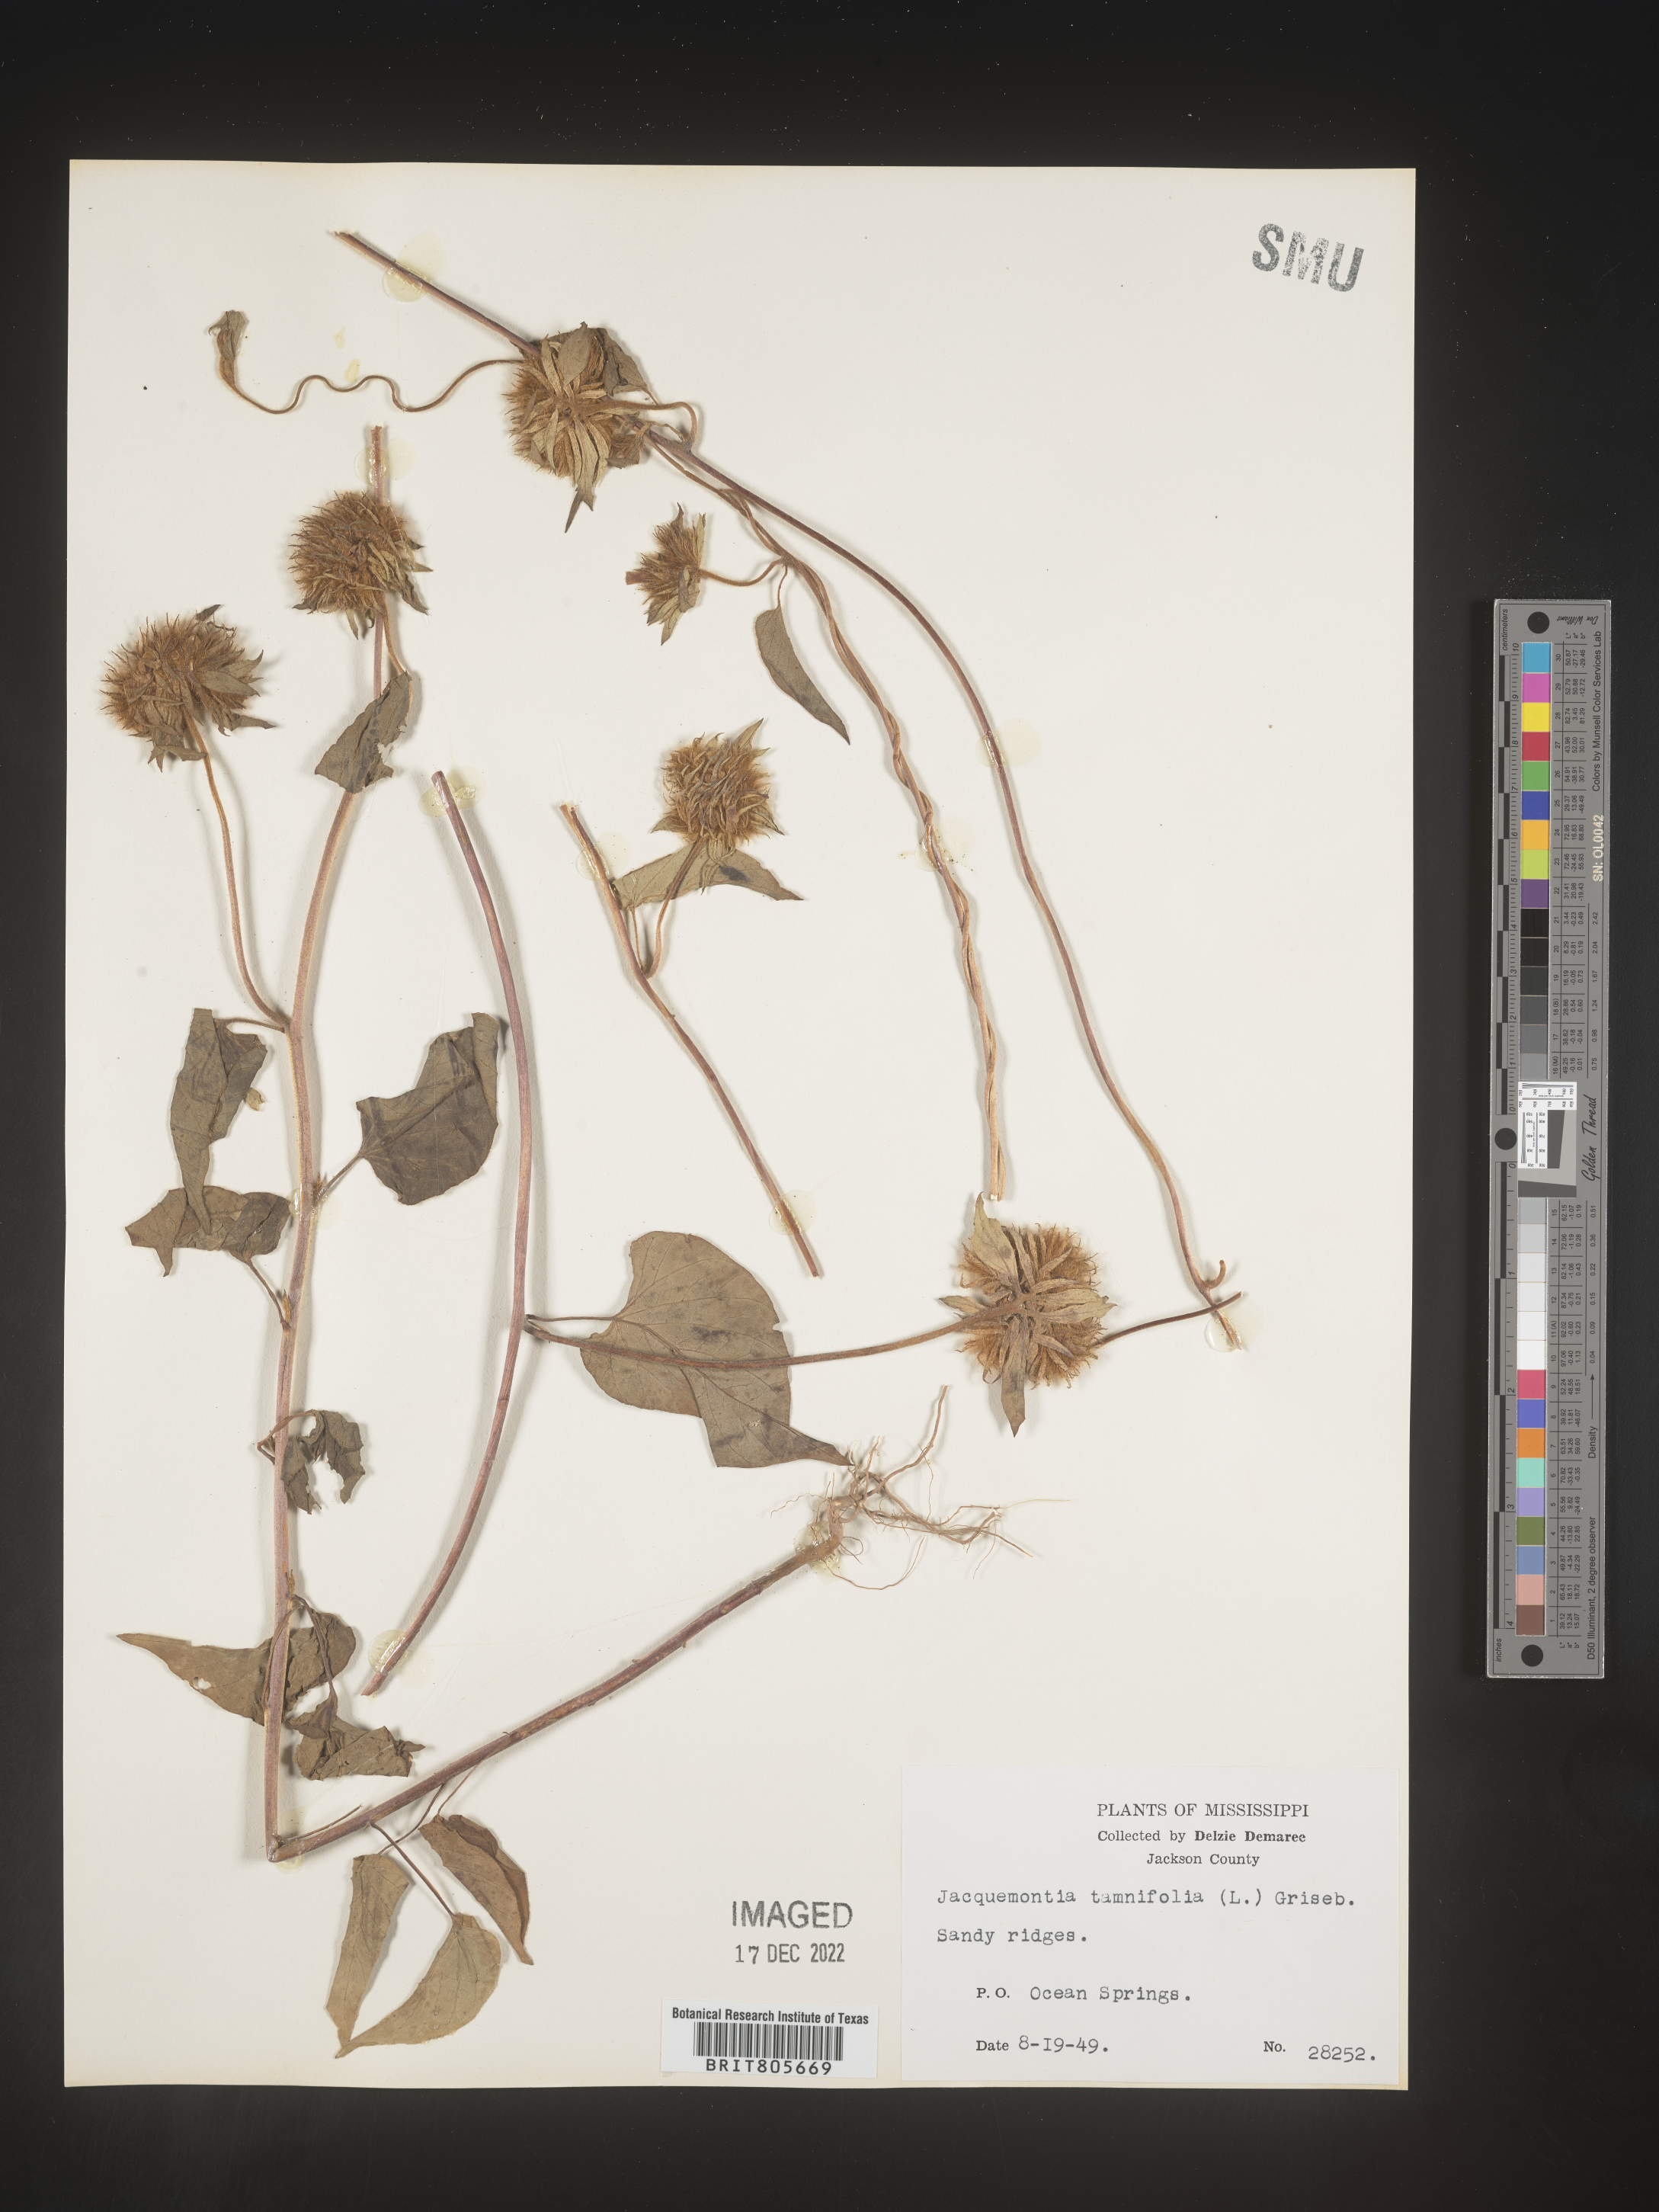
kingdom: Plantae
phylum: Tracheophyta
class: Magnoliopsida
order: Solanales
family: Convolvulaceae
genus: Jacquemontia
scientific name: Jacquemontia tamnifolia
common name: Hairy clustervine
